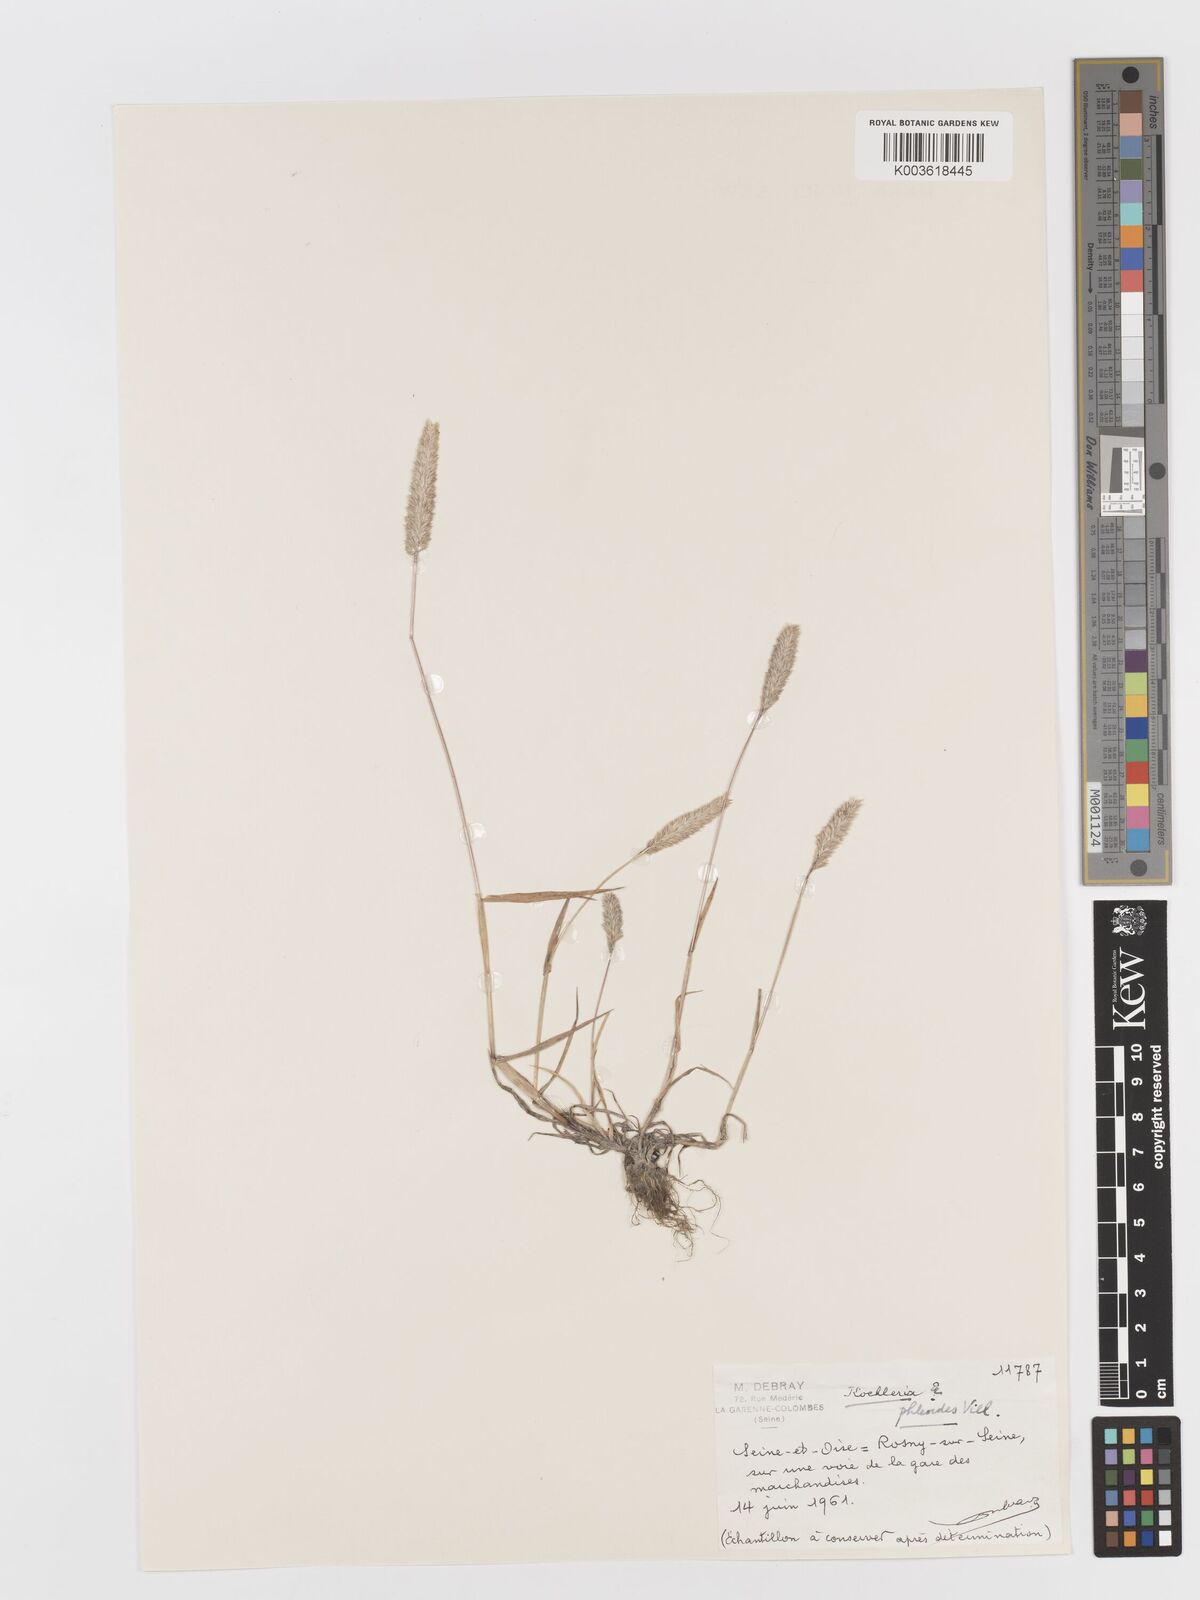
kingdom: Plantae
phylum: Tracheophyta
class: Liliopsida
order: Poales
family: Poaceae
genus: Rostraria
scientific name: Rostraria cristata
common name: Mediterranean hair-grass
